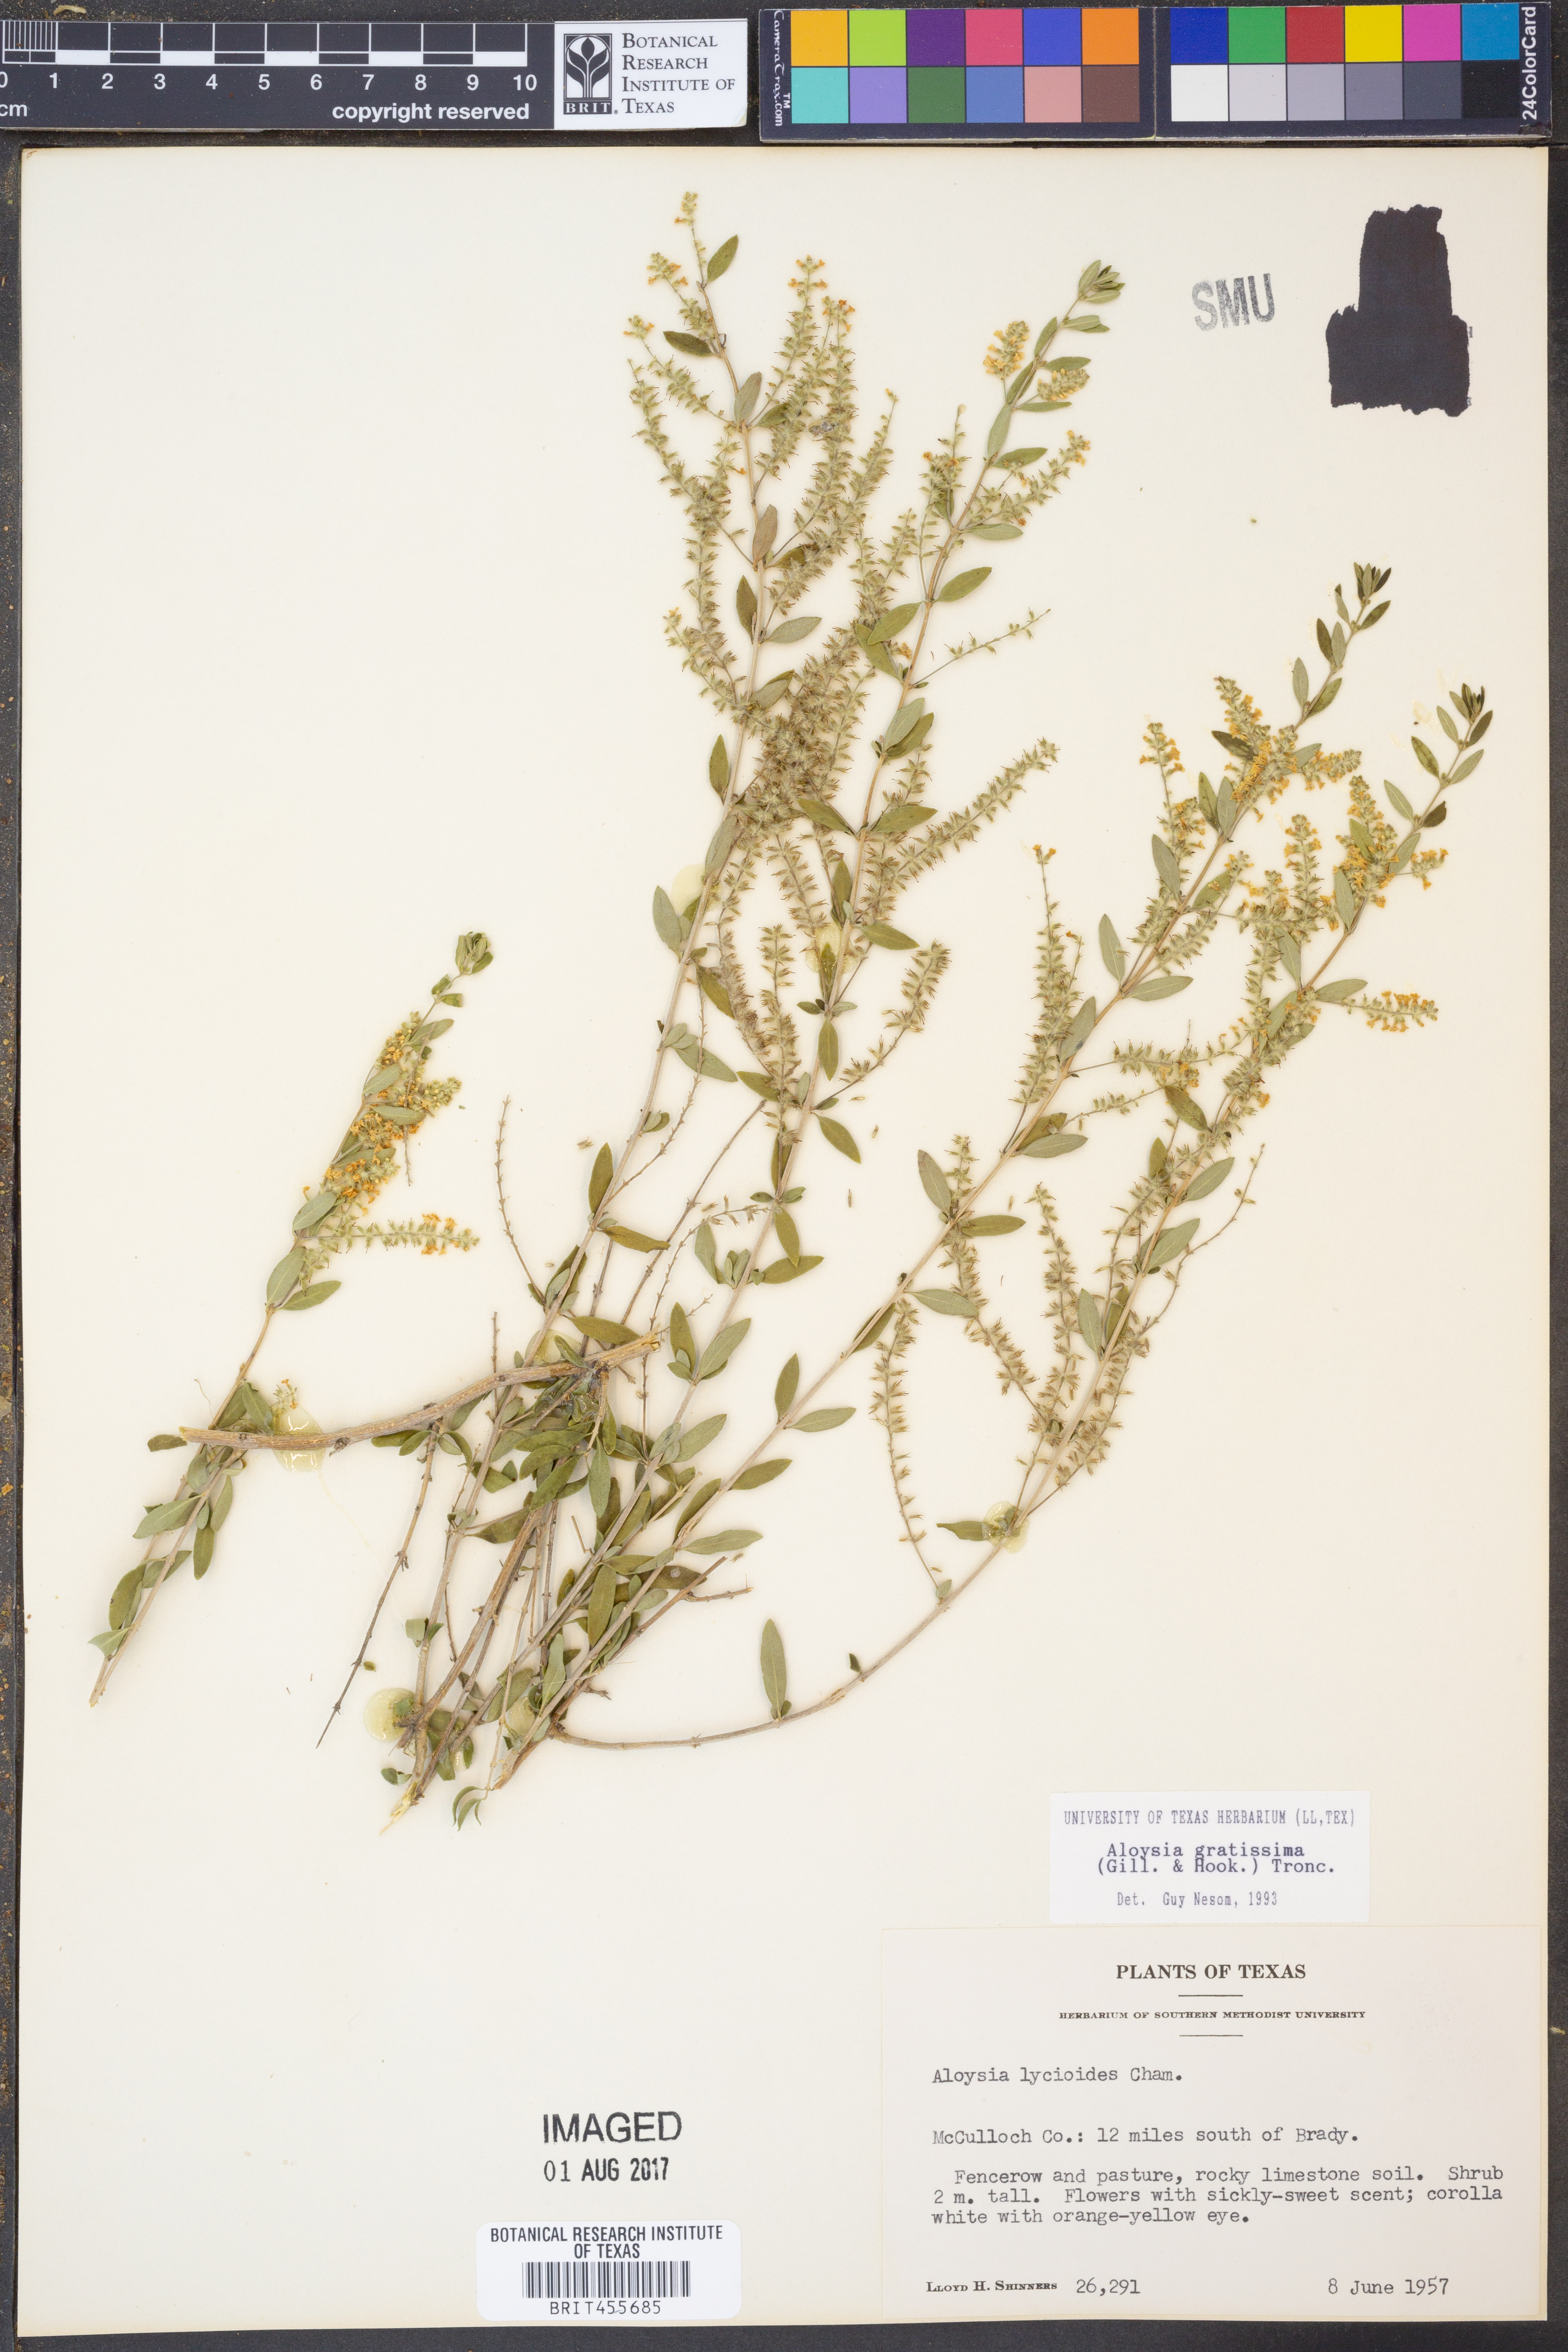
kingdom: Plantae
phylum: Tracheophyta
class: Magnoliopsida
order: Lamiales
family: Verbenaceae
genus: Aloysia
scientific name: Aloysia gratissima
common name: Common bee-brush
